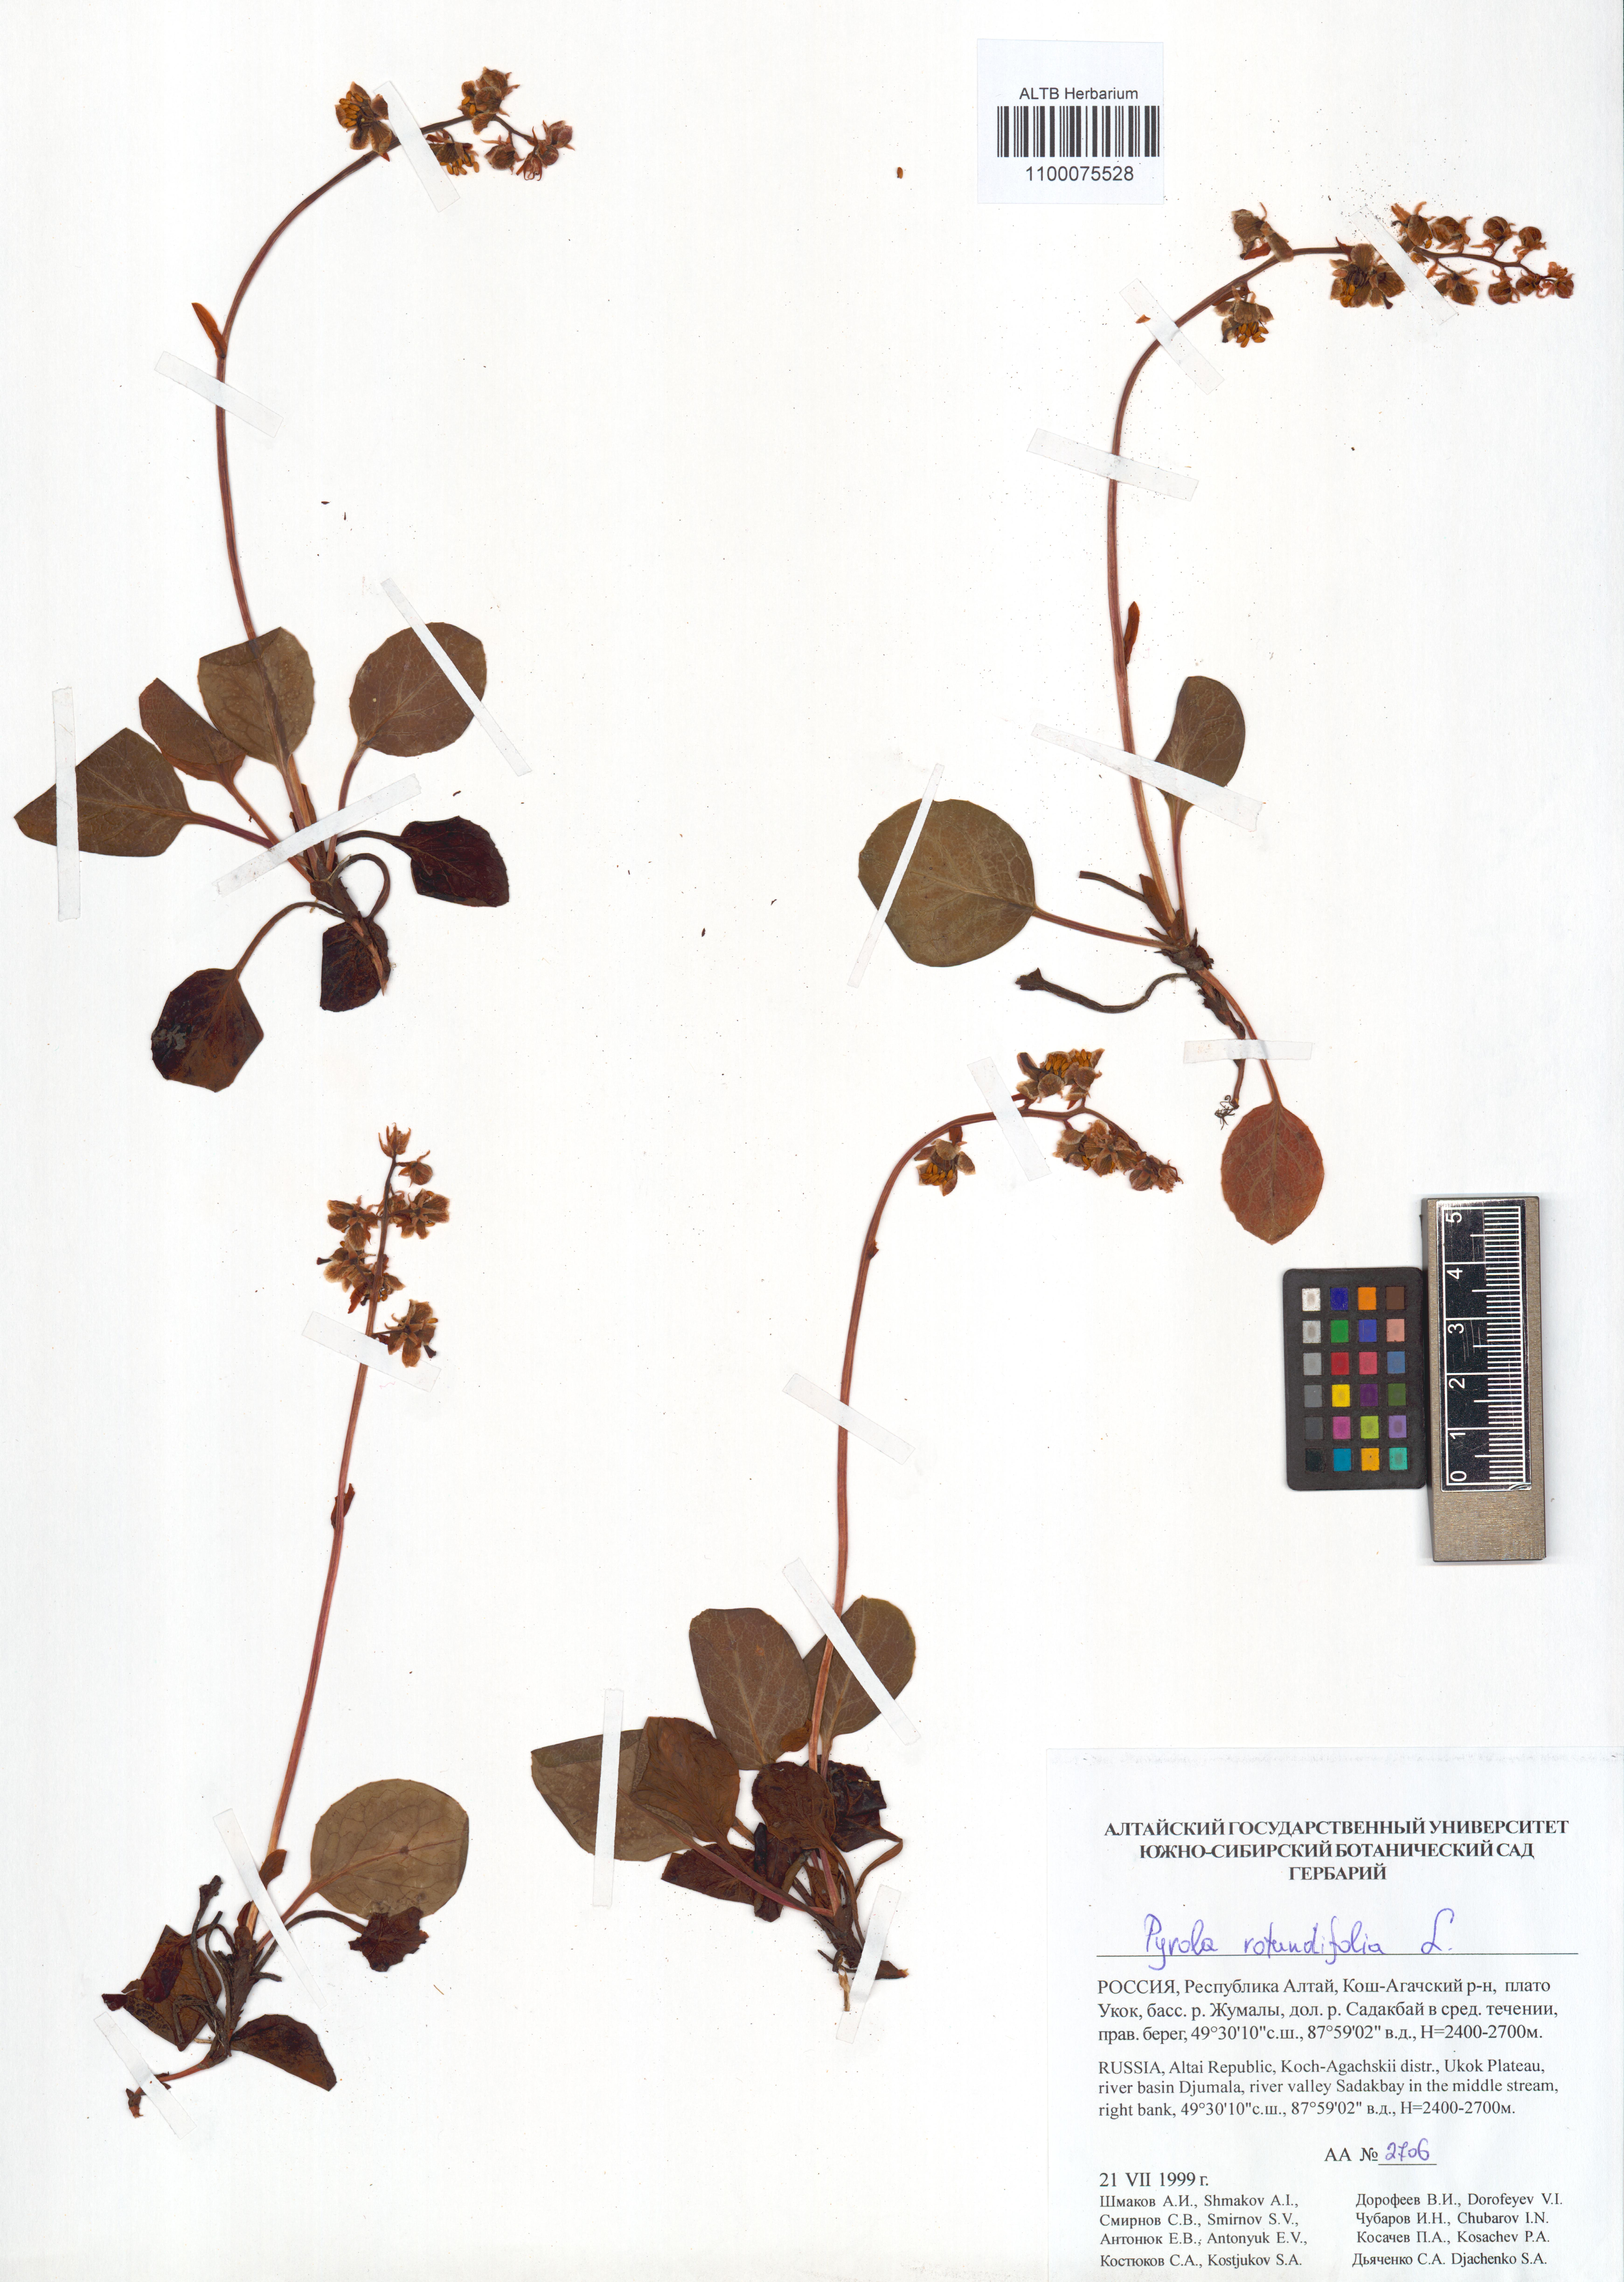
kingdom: Plantae
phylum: Tracheophyta
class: Magnoliopsida
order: Ericales
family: Ericaceae
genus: Pyrola
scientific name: Pyrola rotundifolia
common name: Round-leaved wintergreen
